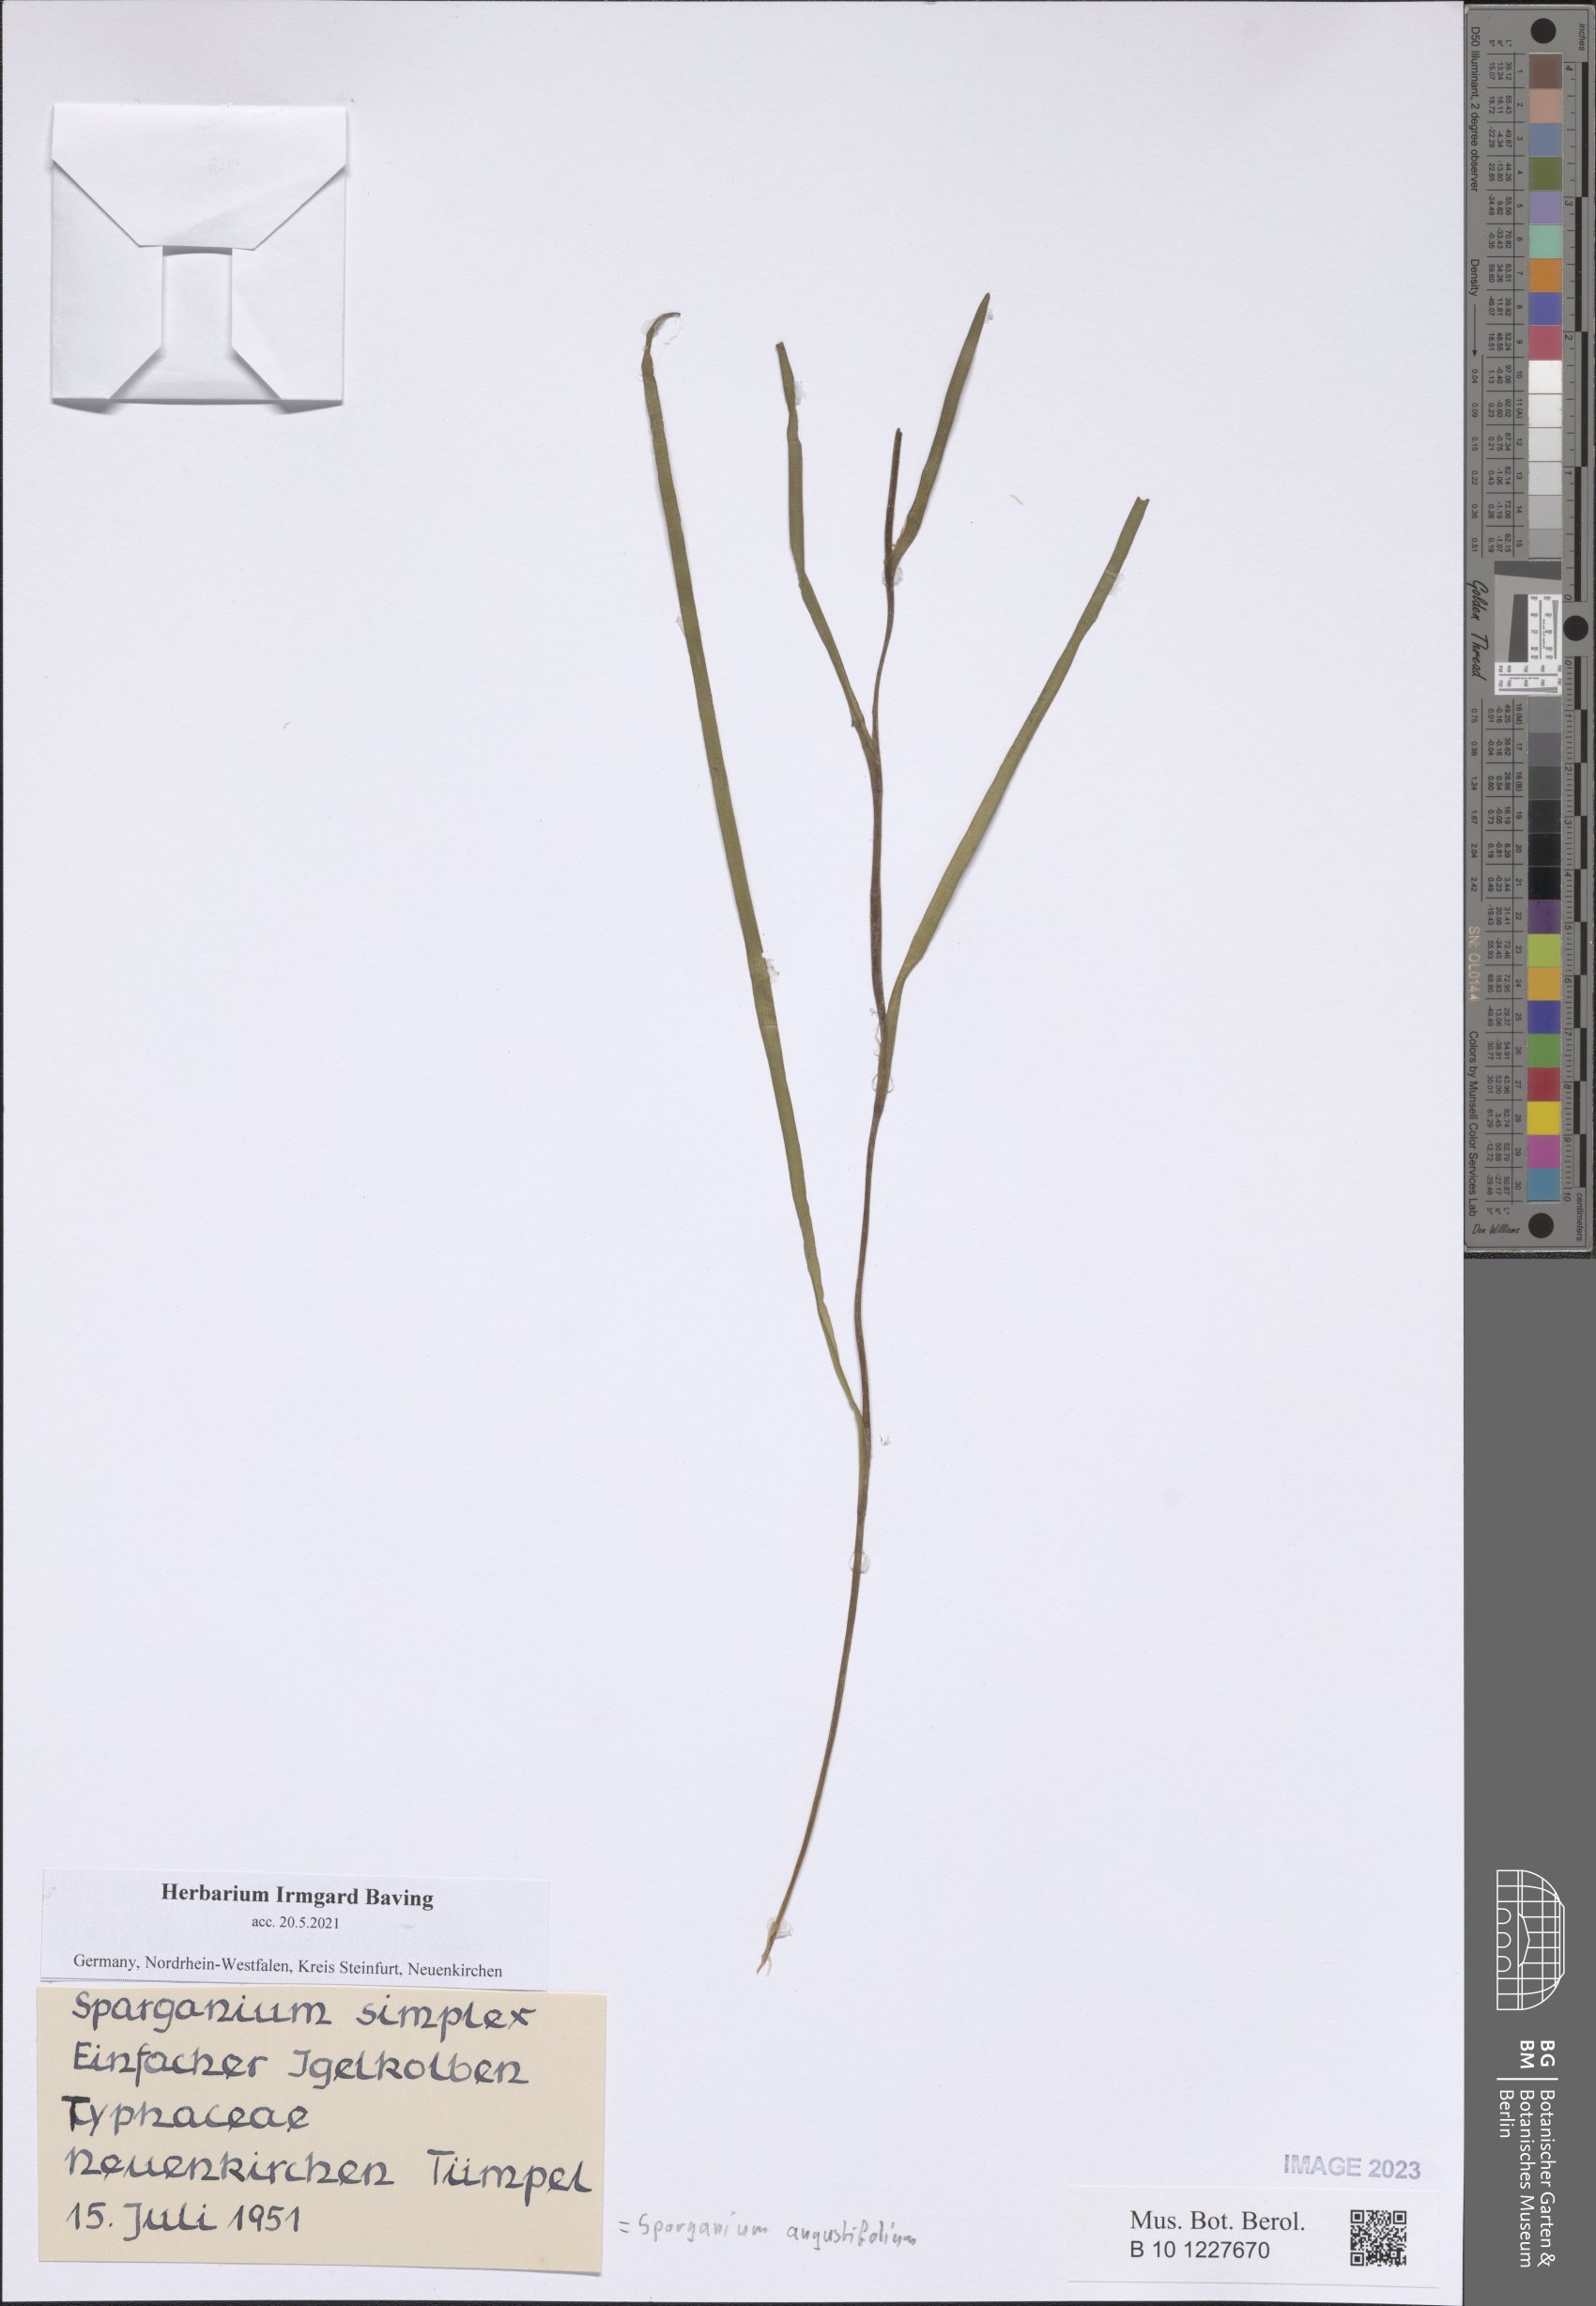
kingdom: Plantae
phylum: Tracheophyta
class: Liliopsida
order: Poales
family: Typhaceae
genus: Sparganium
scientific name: Sparganium angustifolium
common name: Floating bur-reed
